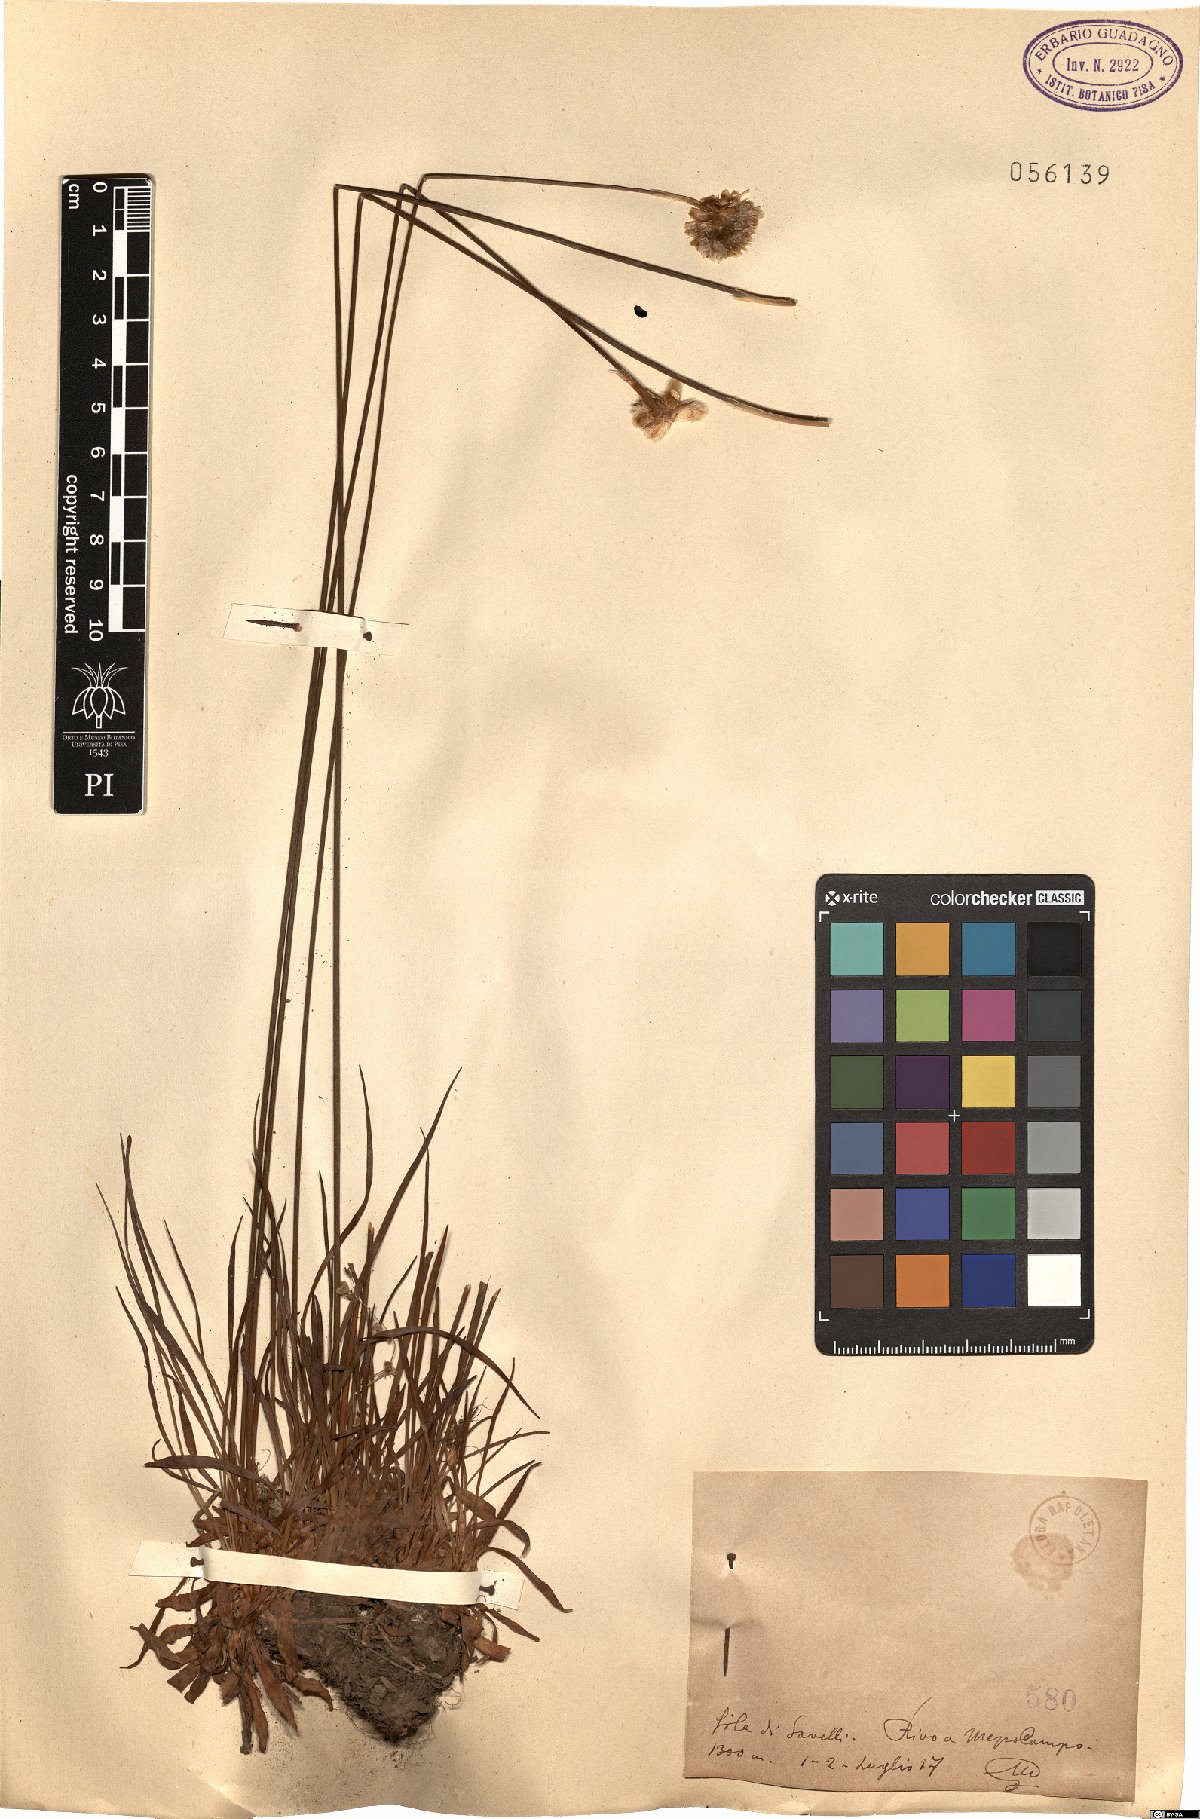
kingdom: Plantae
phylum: Tracheophyta
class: Magnoliopsida
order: Caryophyllales
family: Plumbaginaceae
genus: Armeria
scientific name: Armeria
